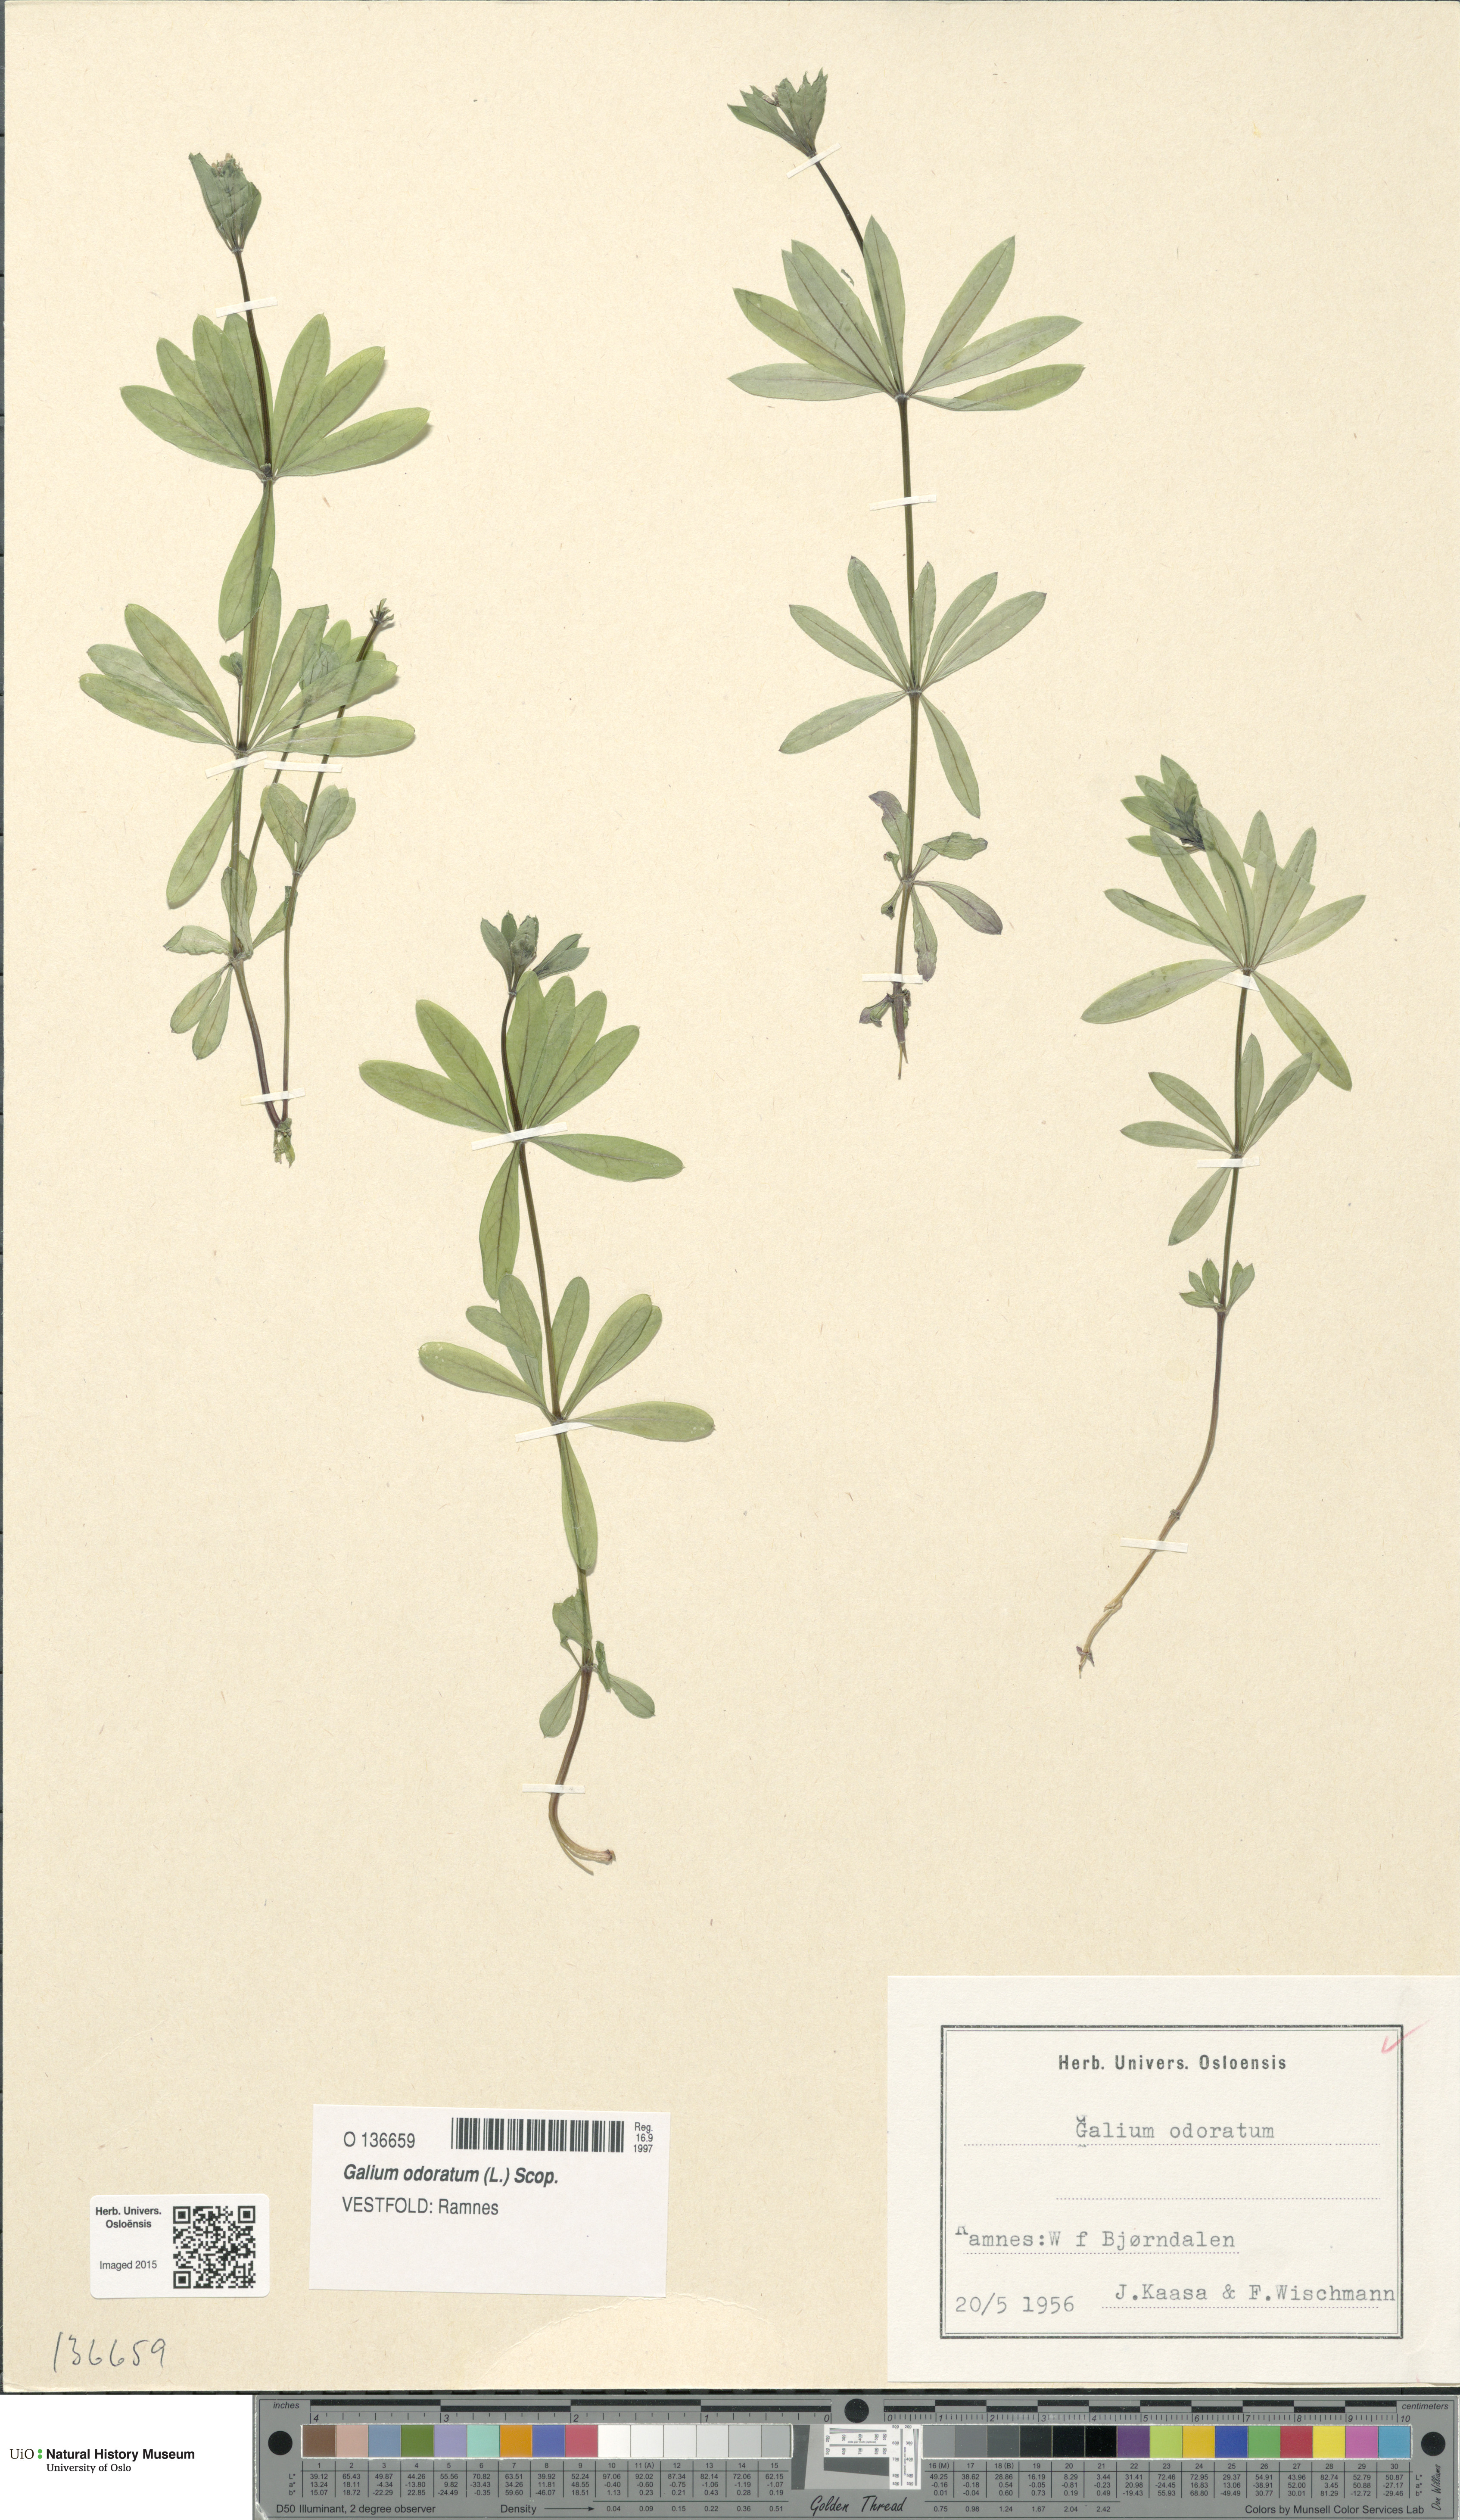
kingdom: Plantae
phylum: Tracheophyta
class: Magnoliopsida
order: Gentianales
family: Rubiaceae
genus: Galium
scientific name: Galium odoratum
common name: Sweet woodruff
